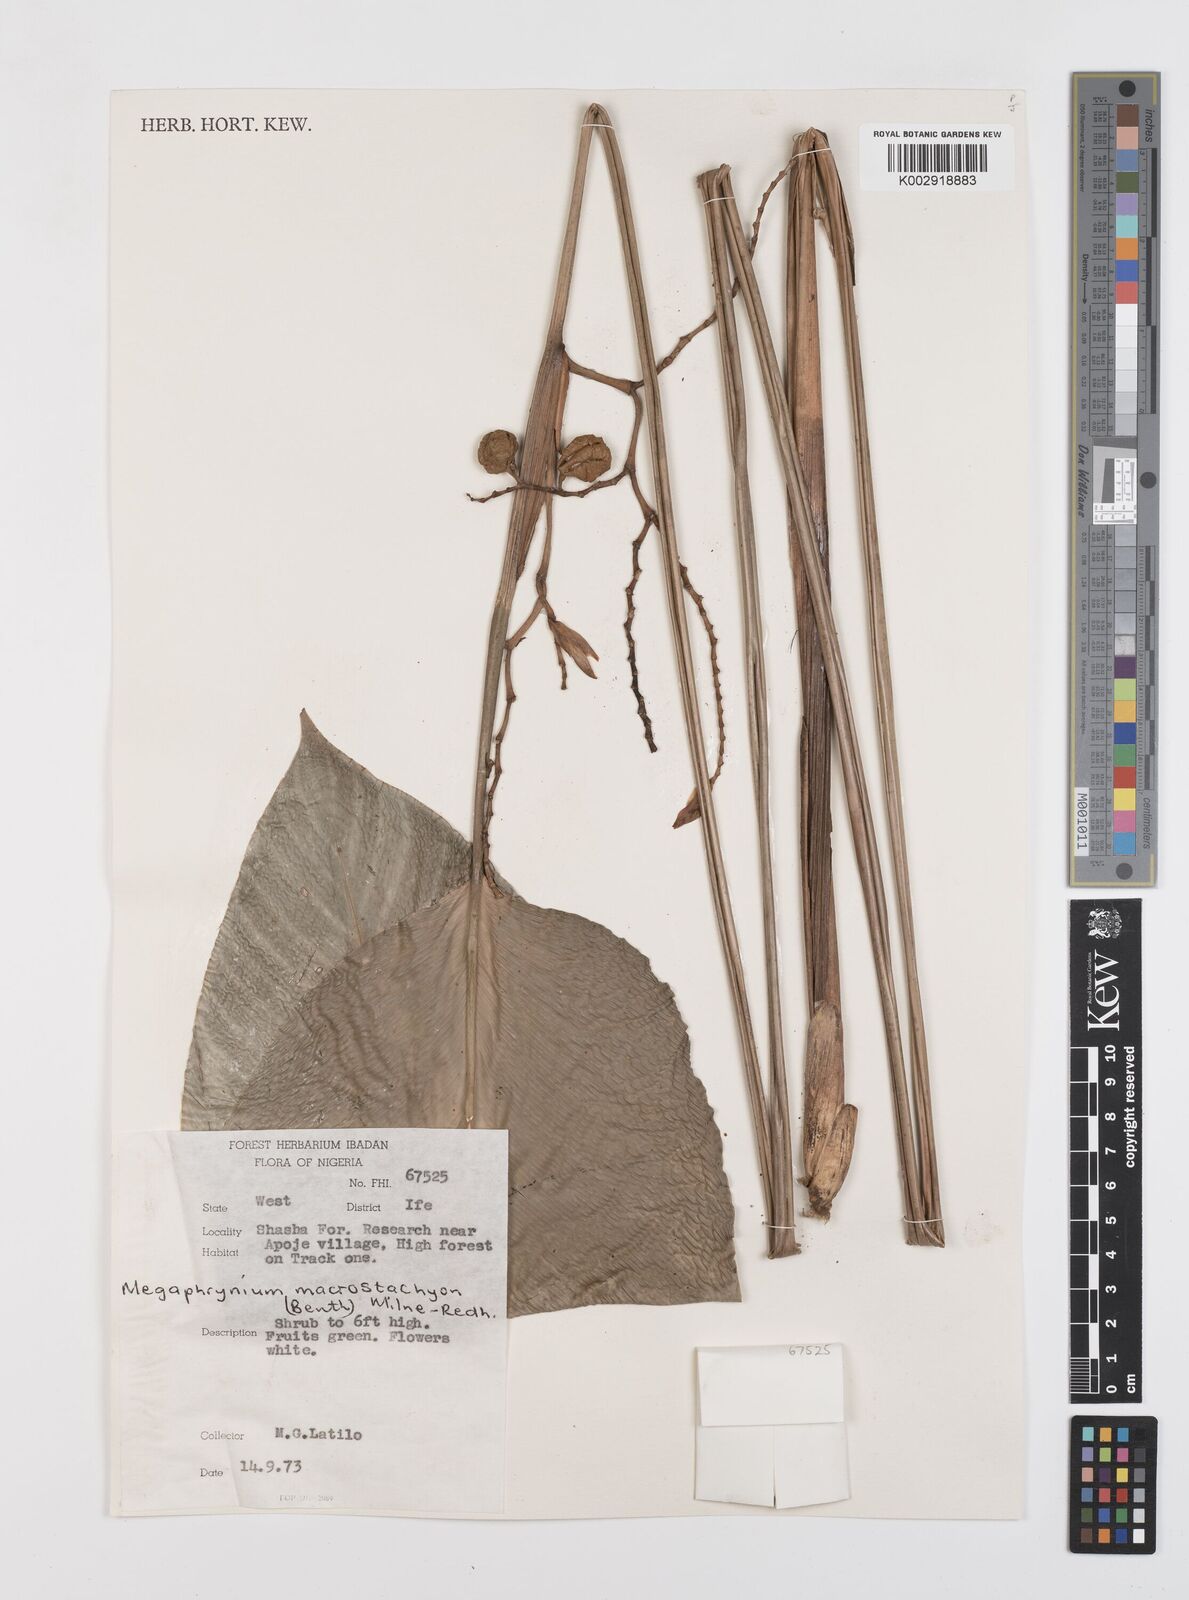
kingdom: Plantae
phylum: Tracheophyta
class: Liliopsida
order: Zingiberales
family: Marantaceae
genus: Megaphrynium
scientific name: Megaphrynium macrostachyum
